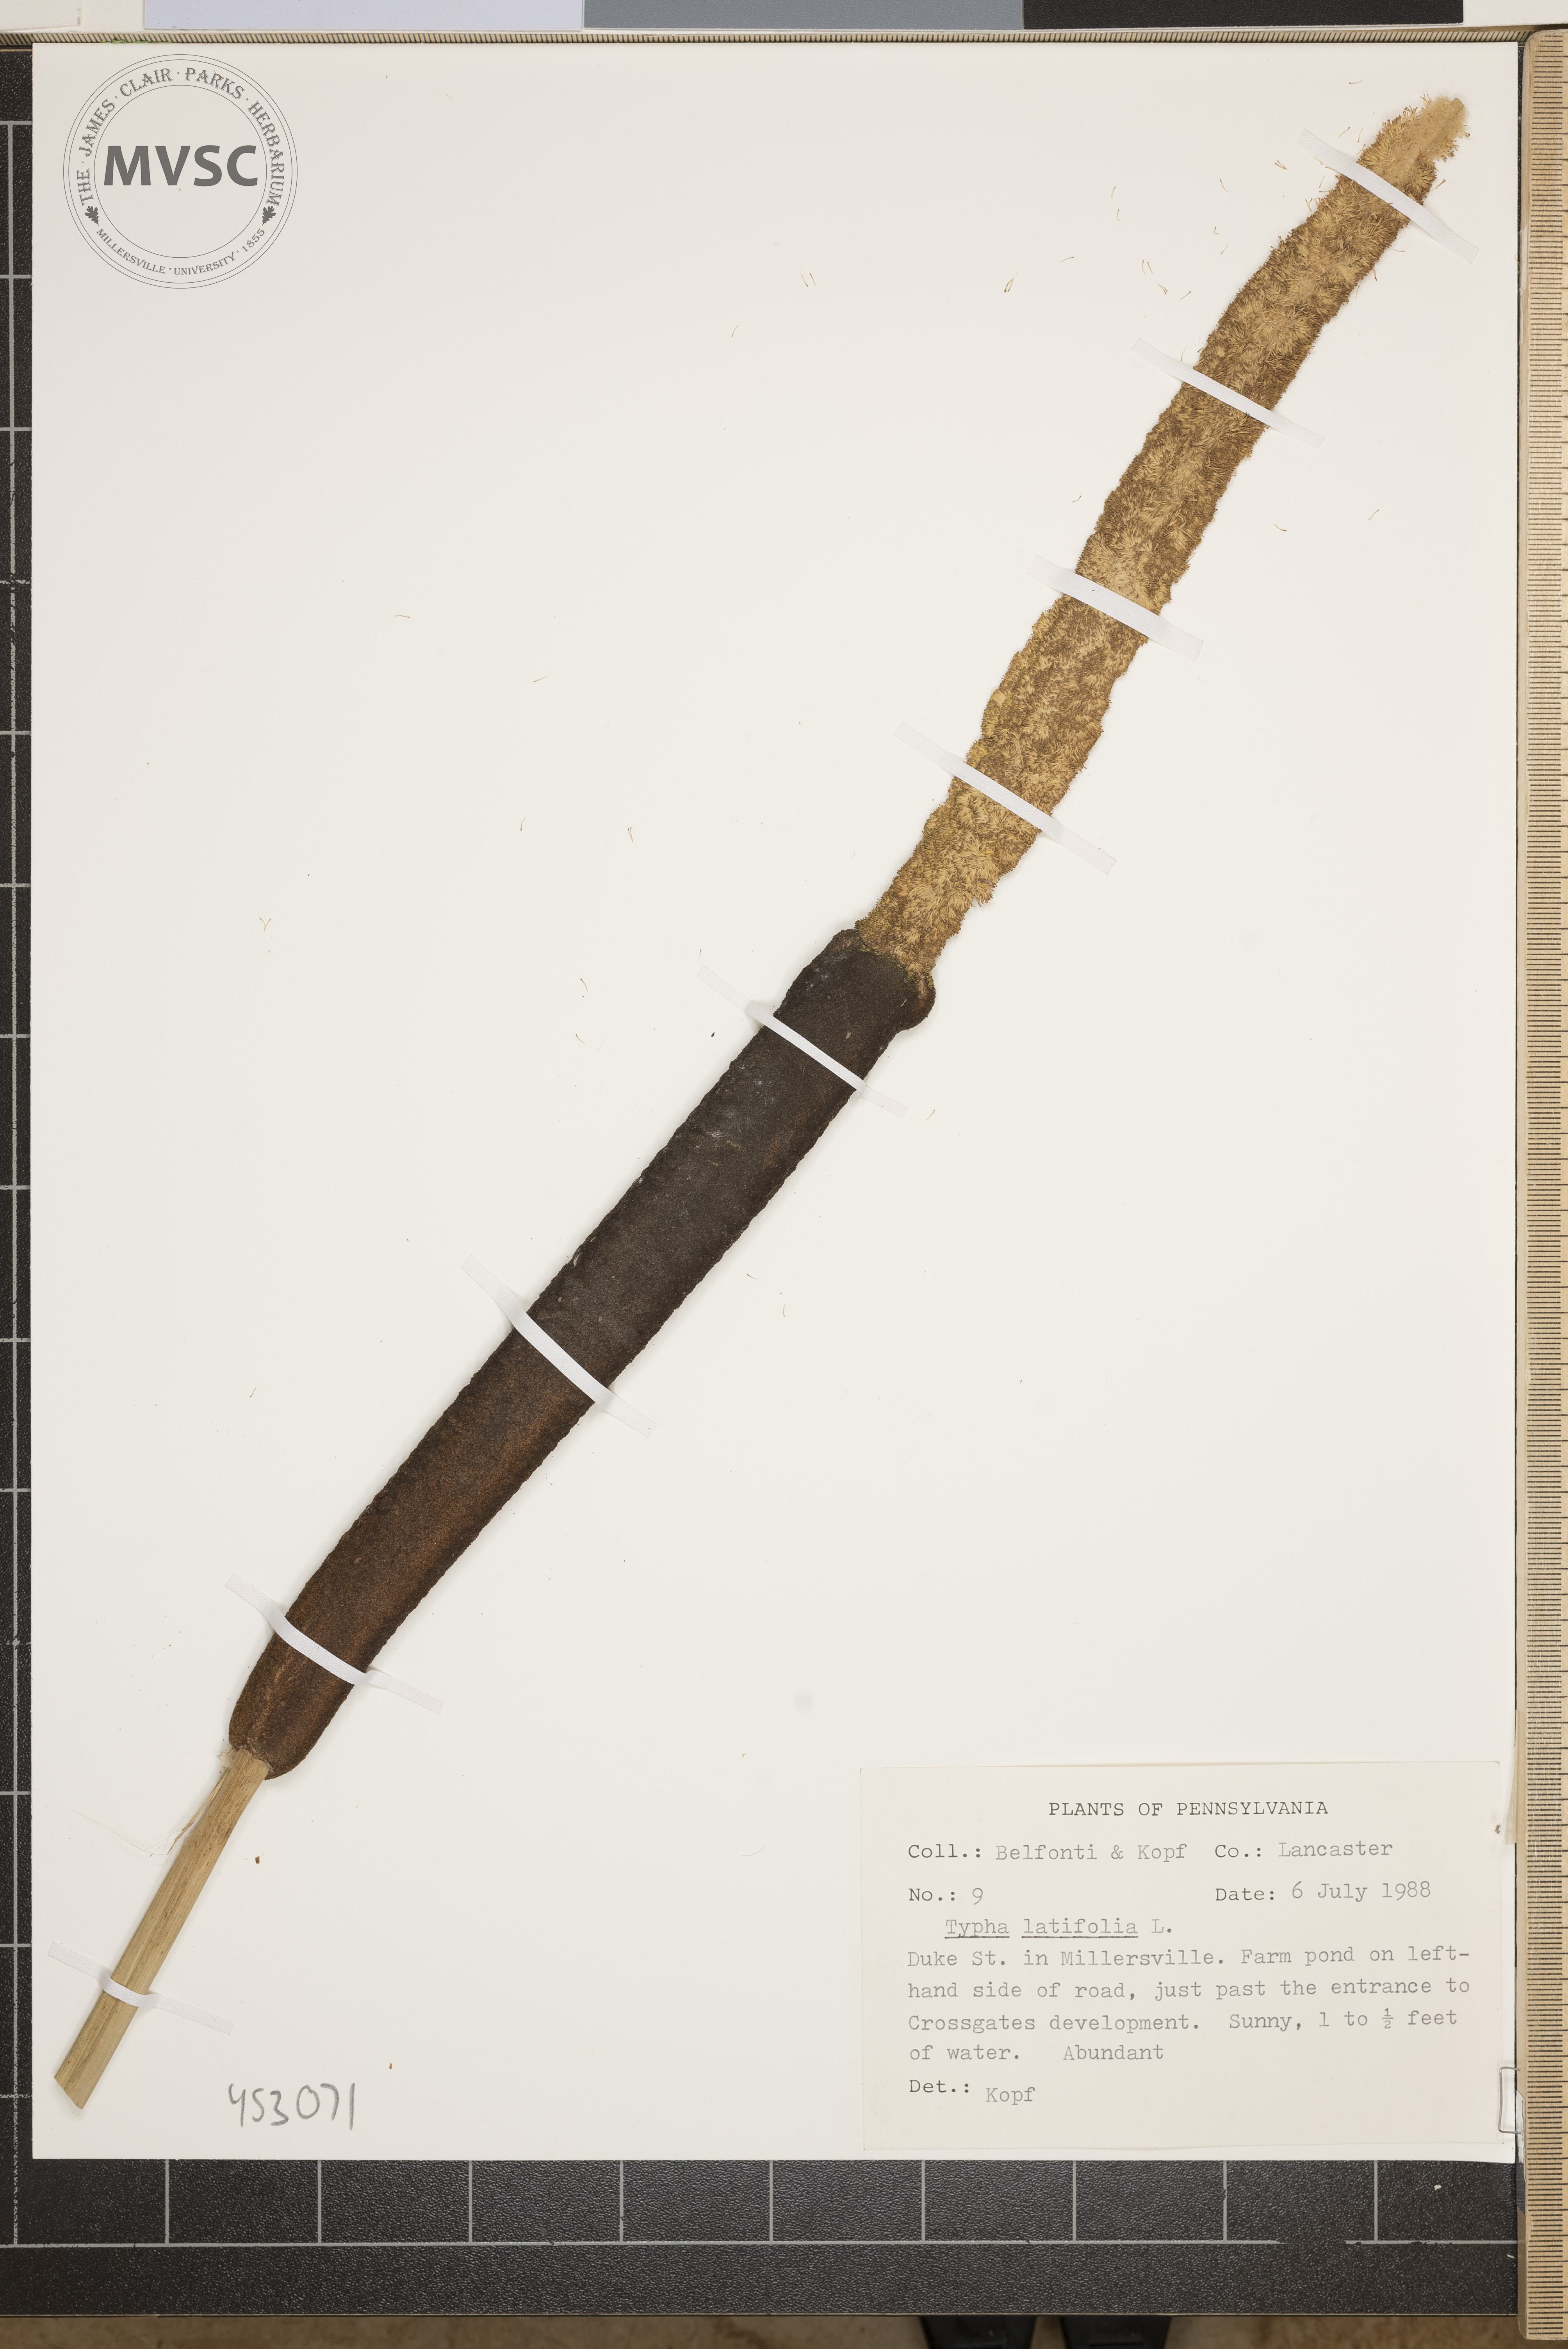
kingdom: Plantae
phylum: Tracheophyta
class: Liliopsida
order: Poales
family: Typhaceae
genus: Typha
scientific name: Typha latifolia
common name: Broadleaf cattail
